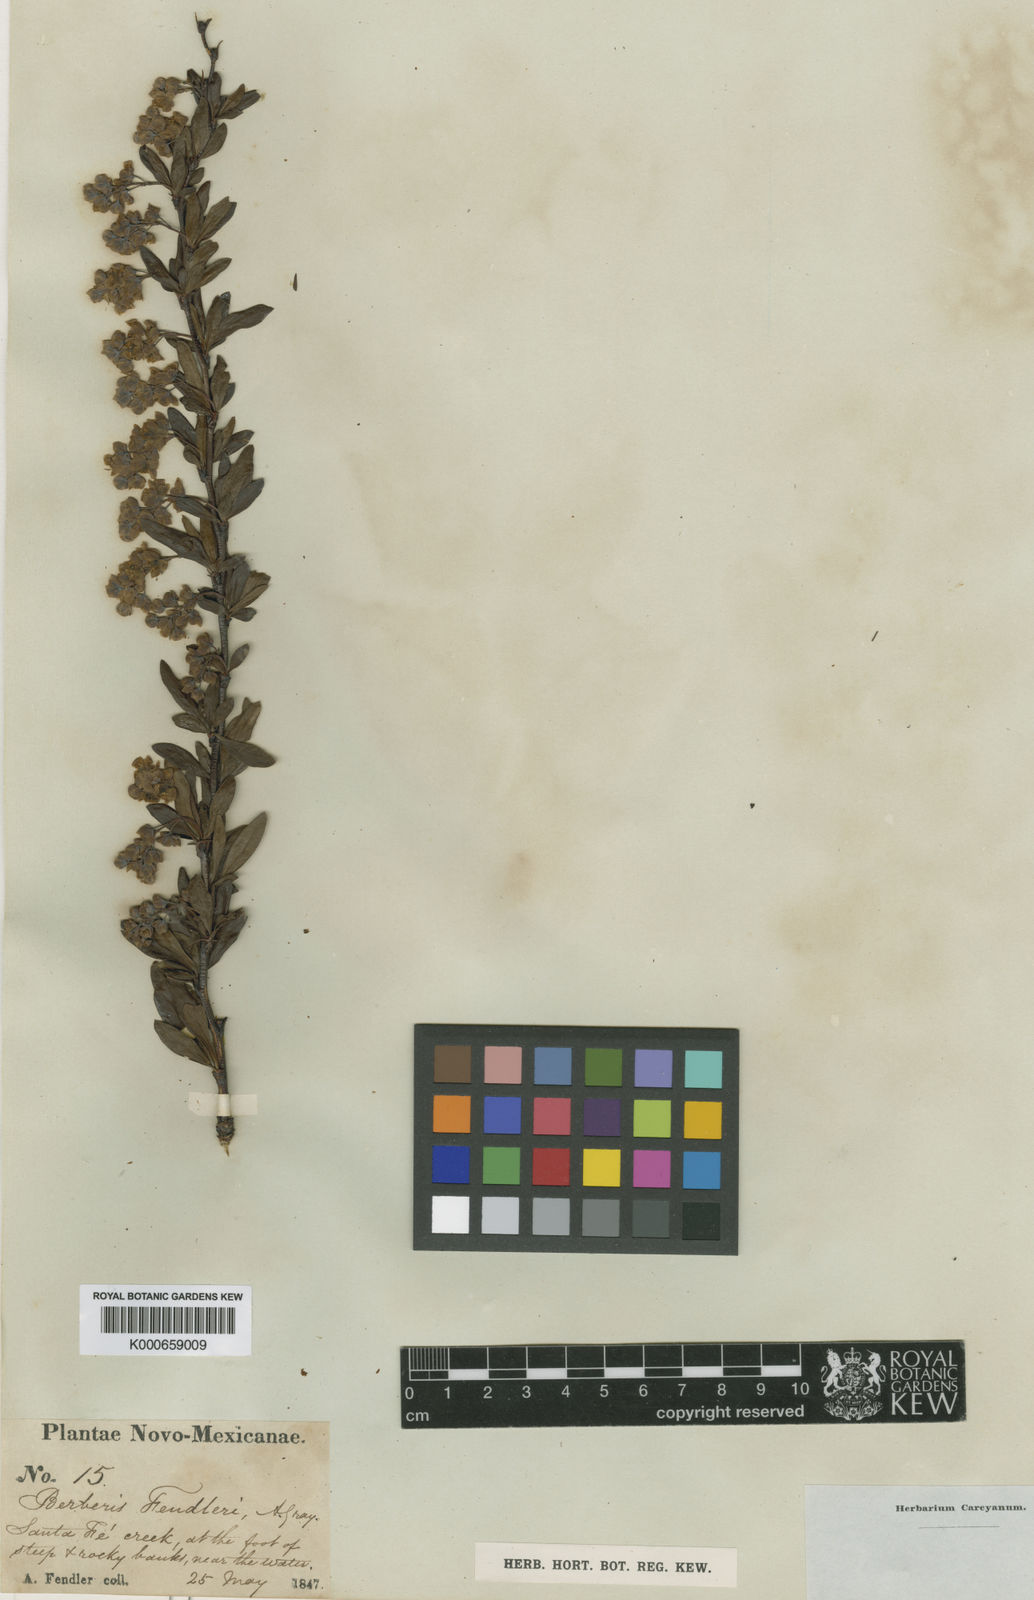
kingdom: Plantae
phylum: Tracheophyta
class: Magnoliopsida
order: Ranunculales
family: Berberidaceae
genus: Berberis
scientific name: Berberis fendleri
